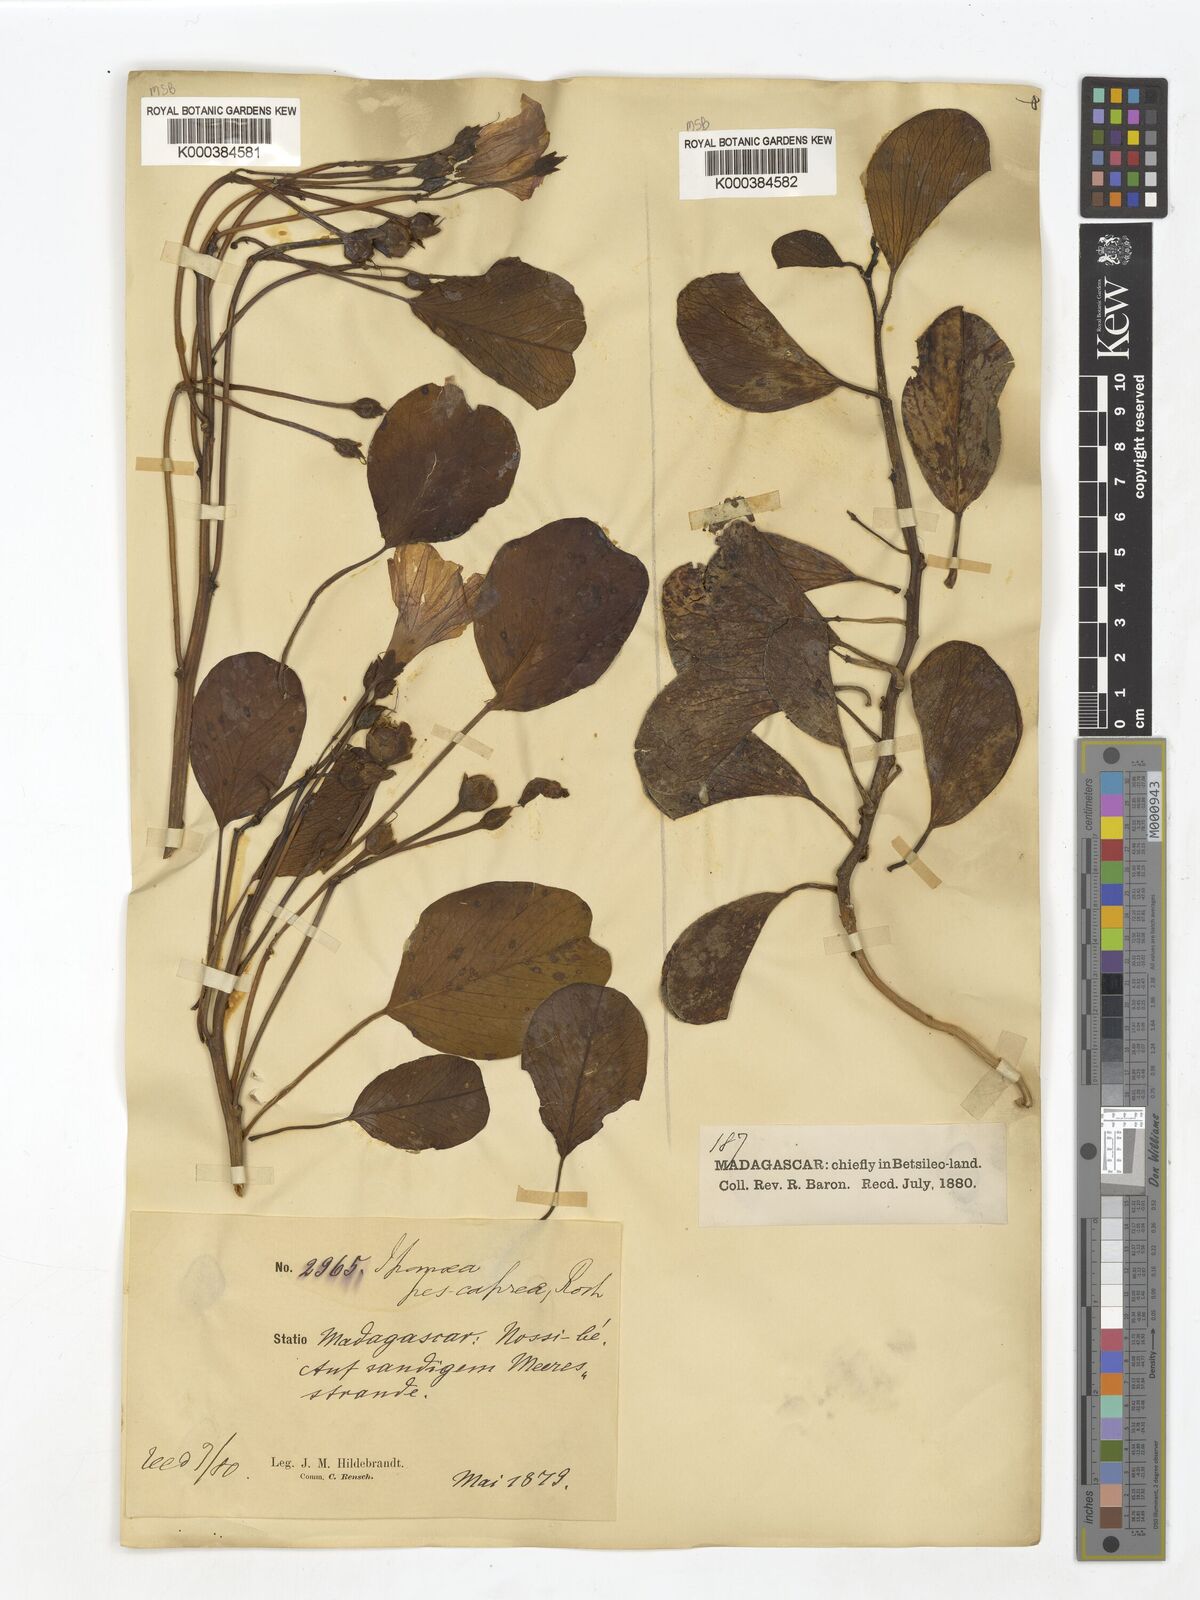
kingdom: Plantae
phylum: Tracheophyta
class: Magnoliopsida
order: Solanales
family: Convolvulaceae
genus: Ipomoea
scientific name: Ipomoea
